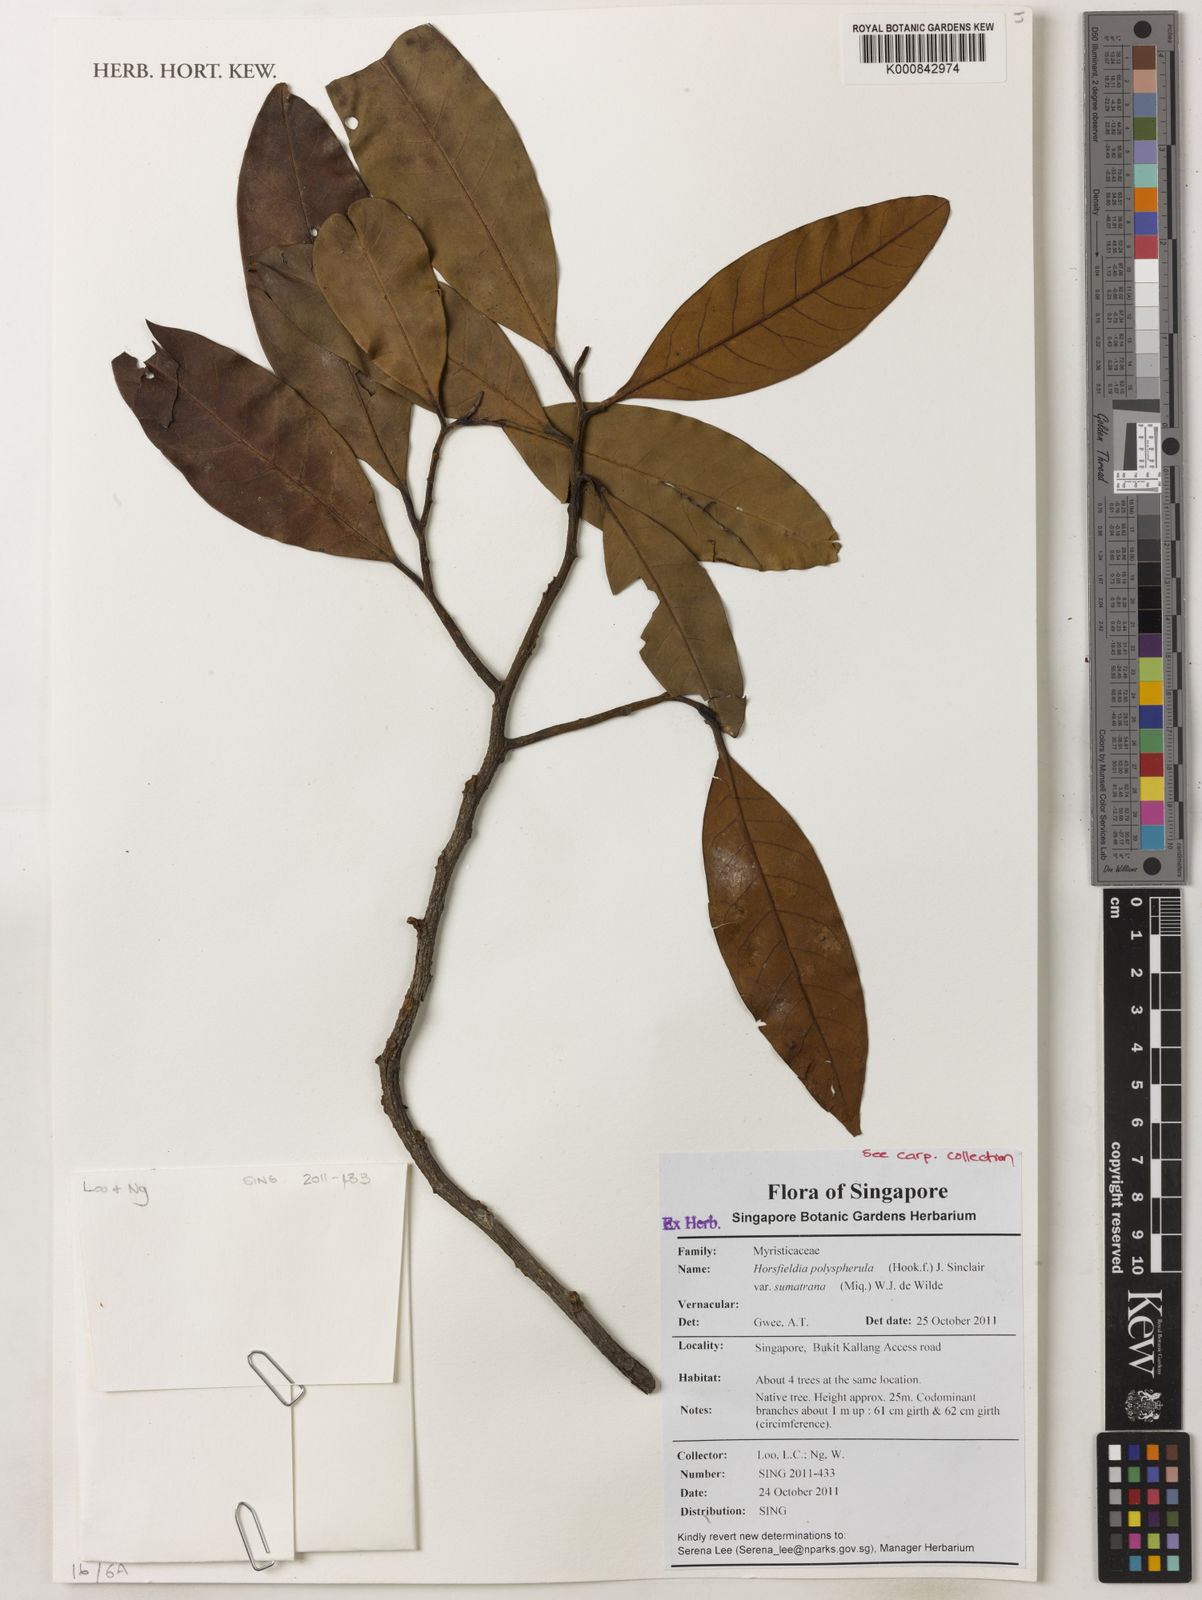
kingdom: Plantae
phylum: Tracheophyta
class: Magnoliopsida
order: Magnoliales
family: Myristicaceae
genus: Horsfieldia
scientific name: Horsfieldia polyspherula
